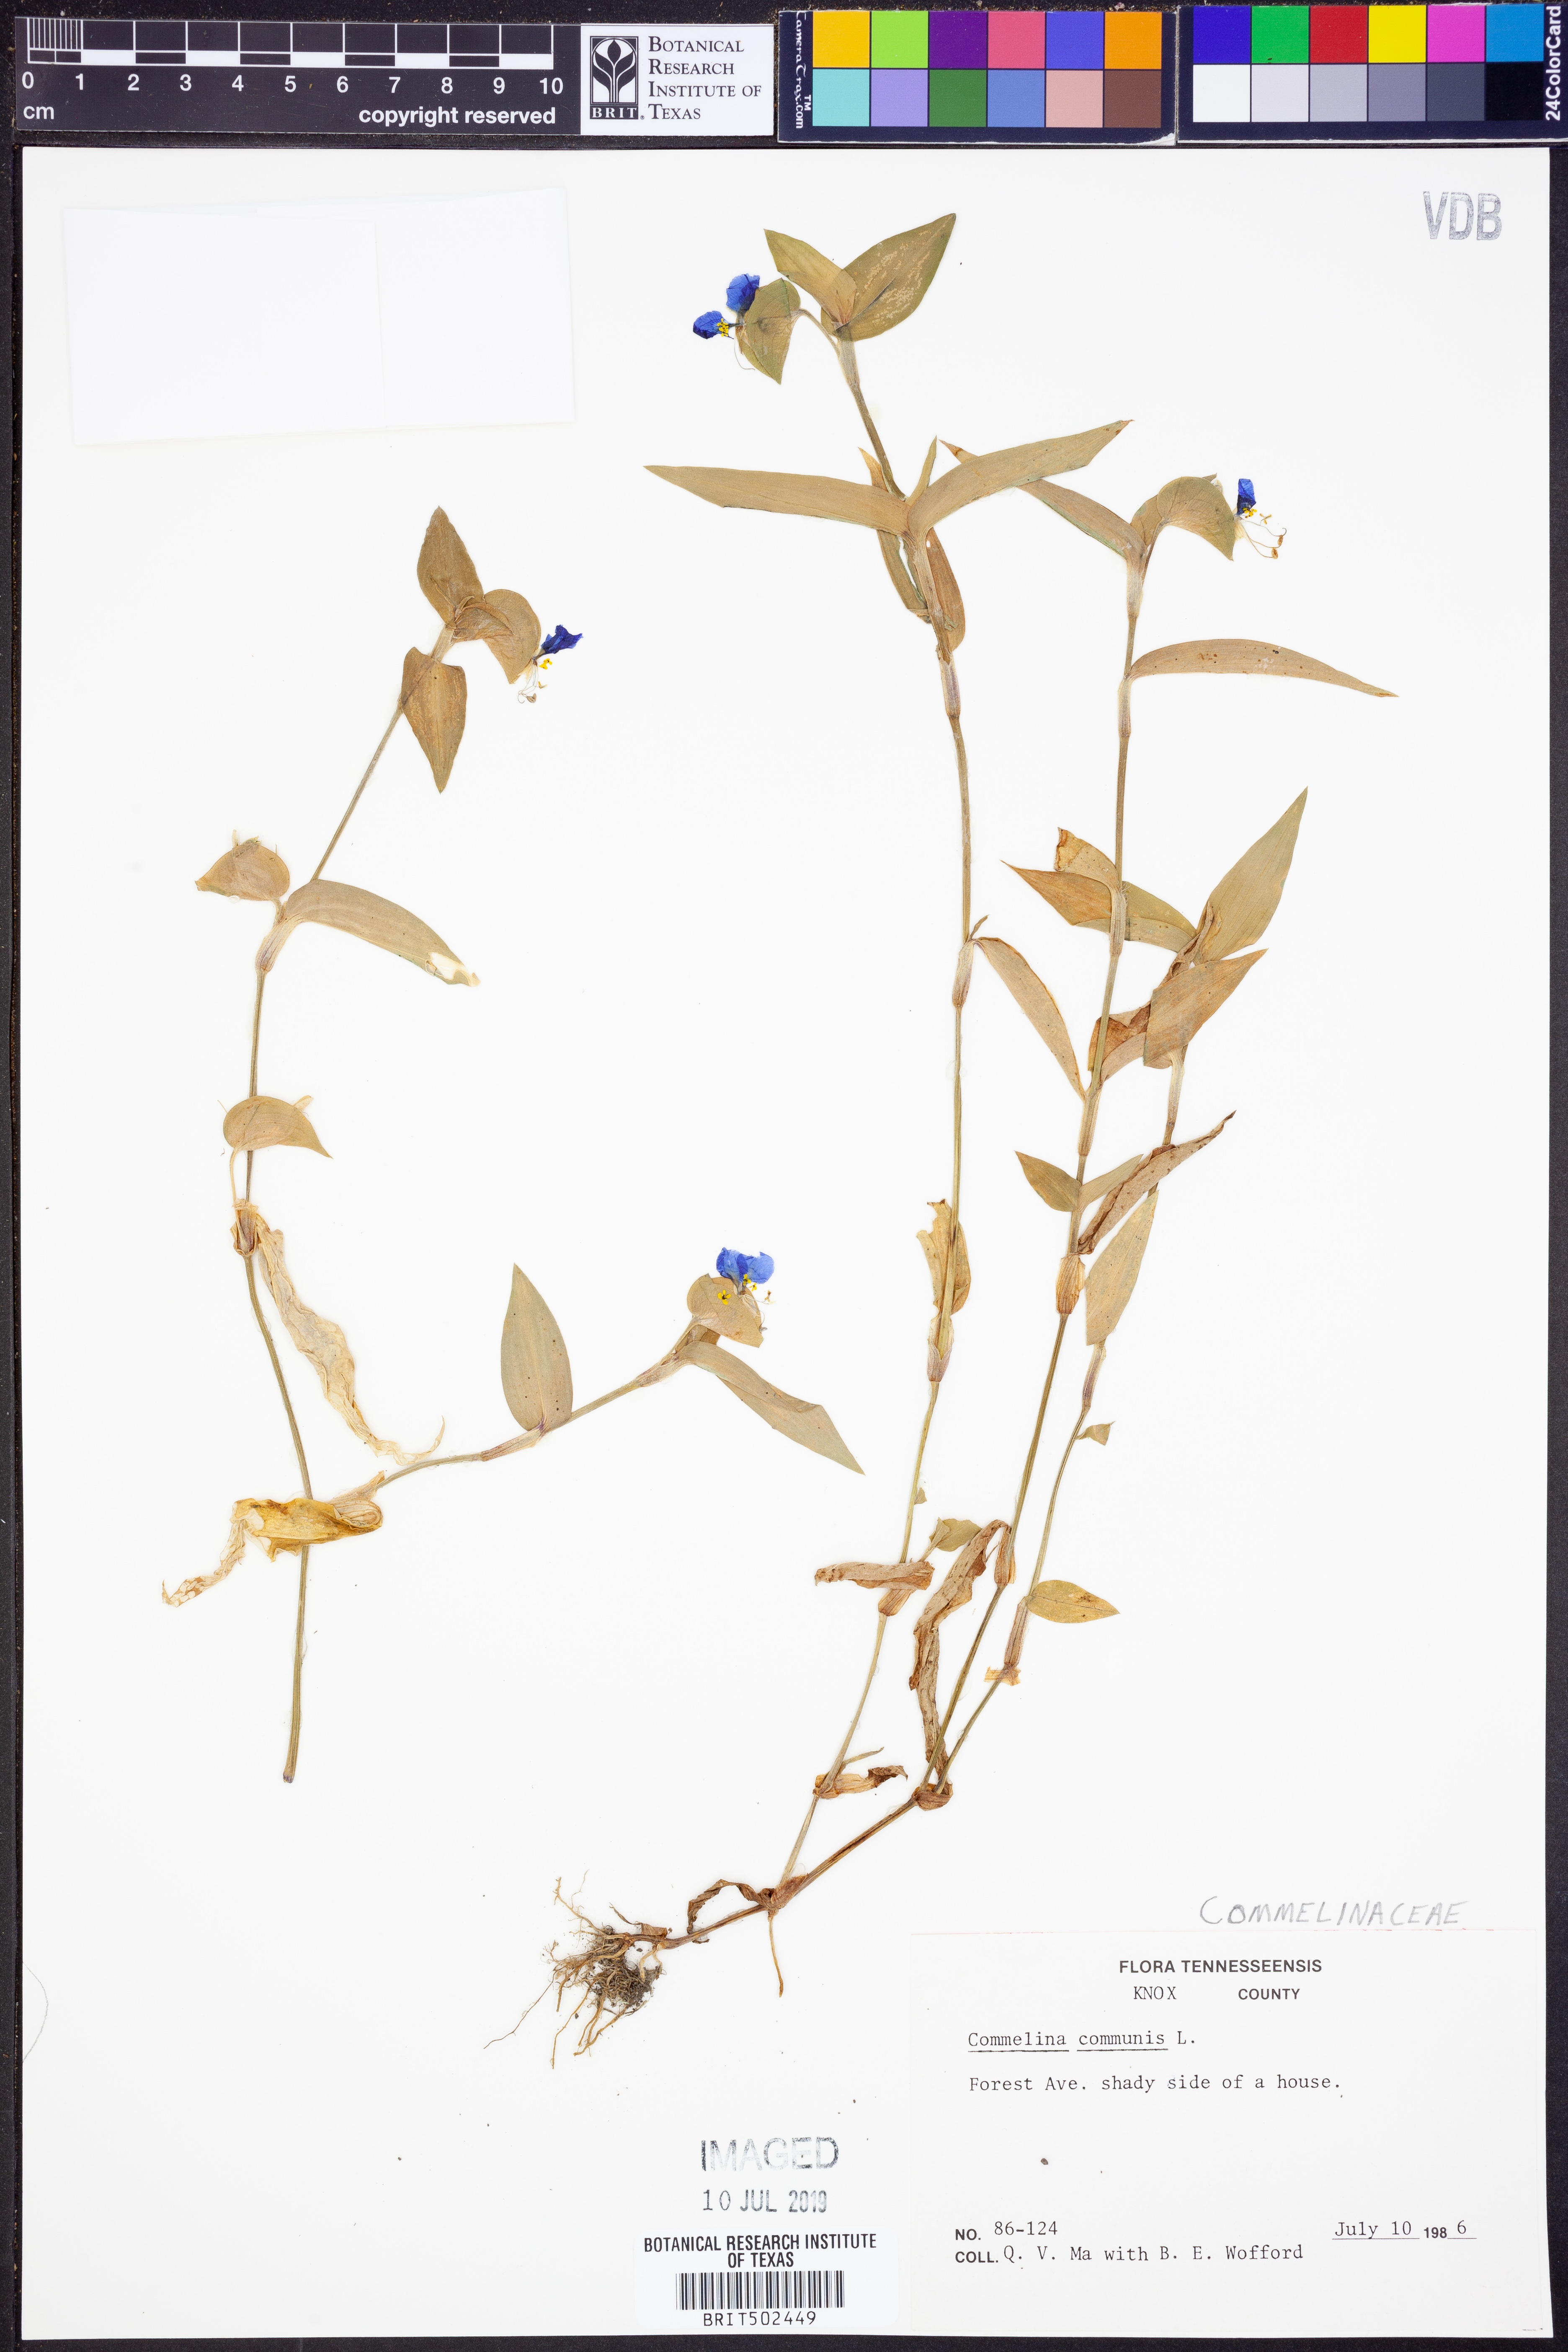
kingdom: Plantae
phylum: Tracheophyta
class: Liliopsida
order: Commelinales
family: Commelinaceae
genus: Commelina
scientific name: Commelina communis
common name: Asiatic dayflower
